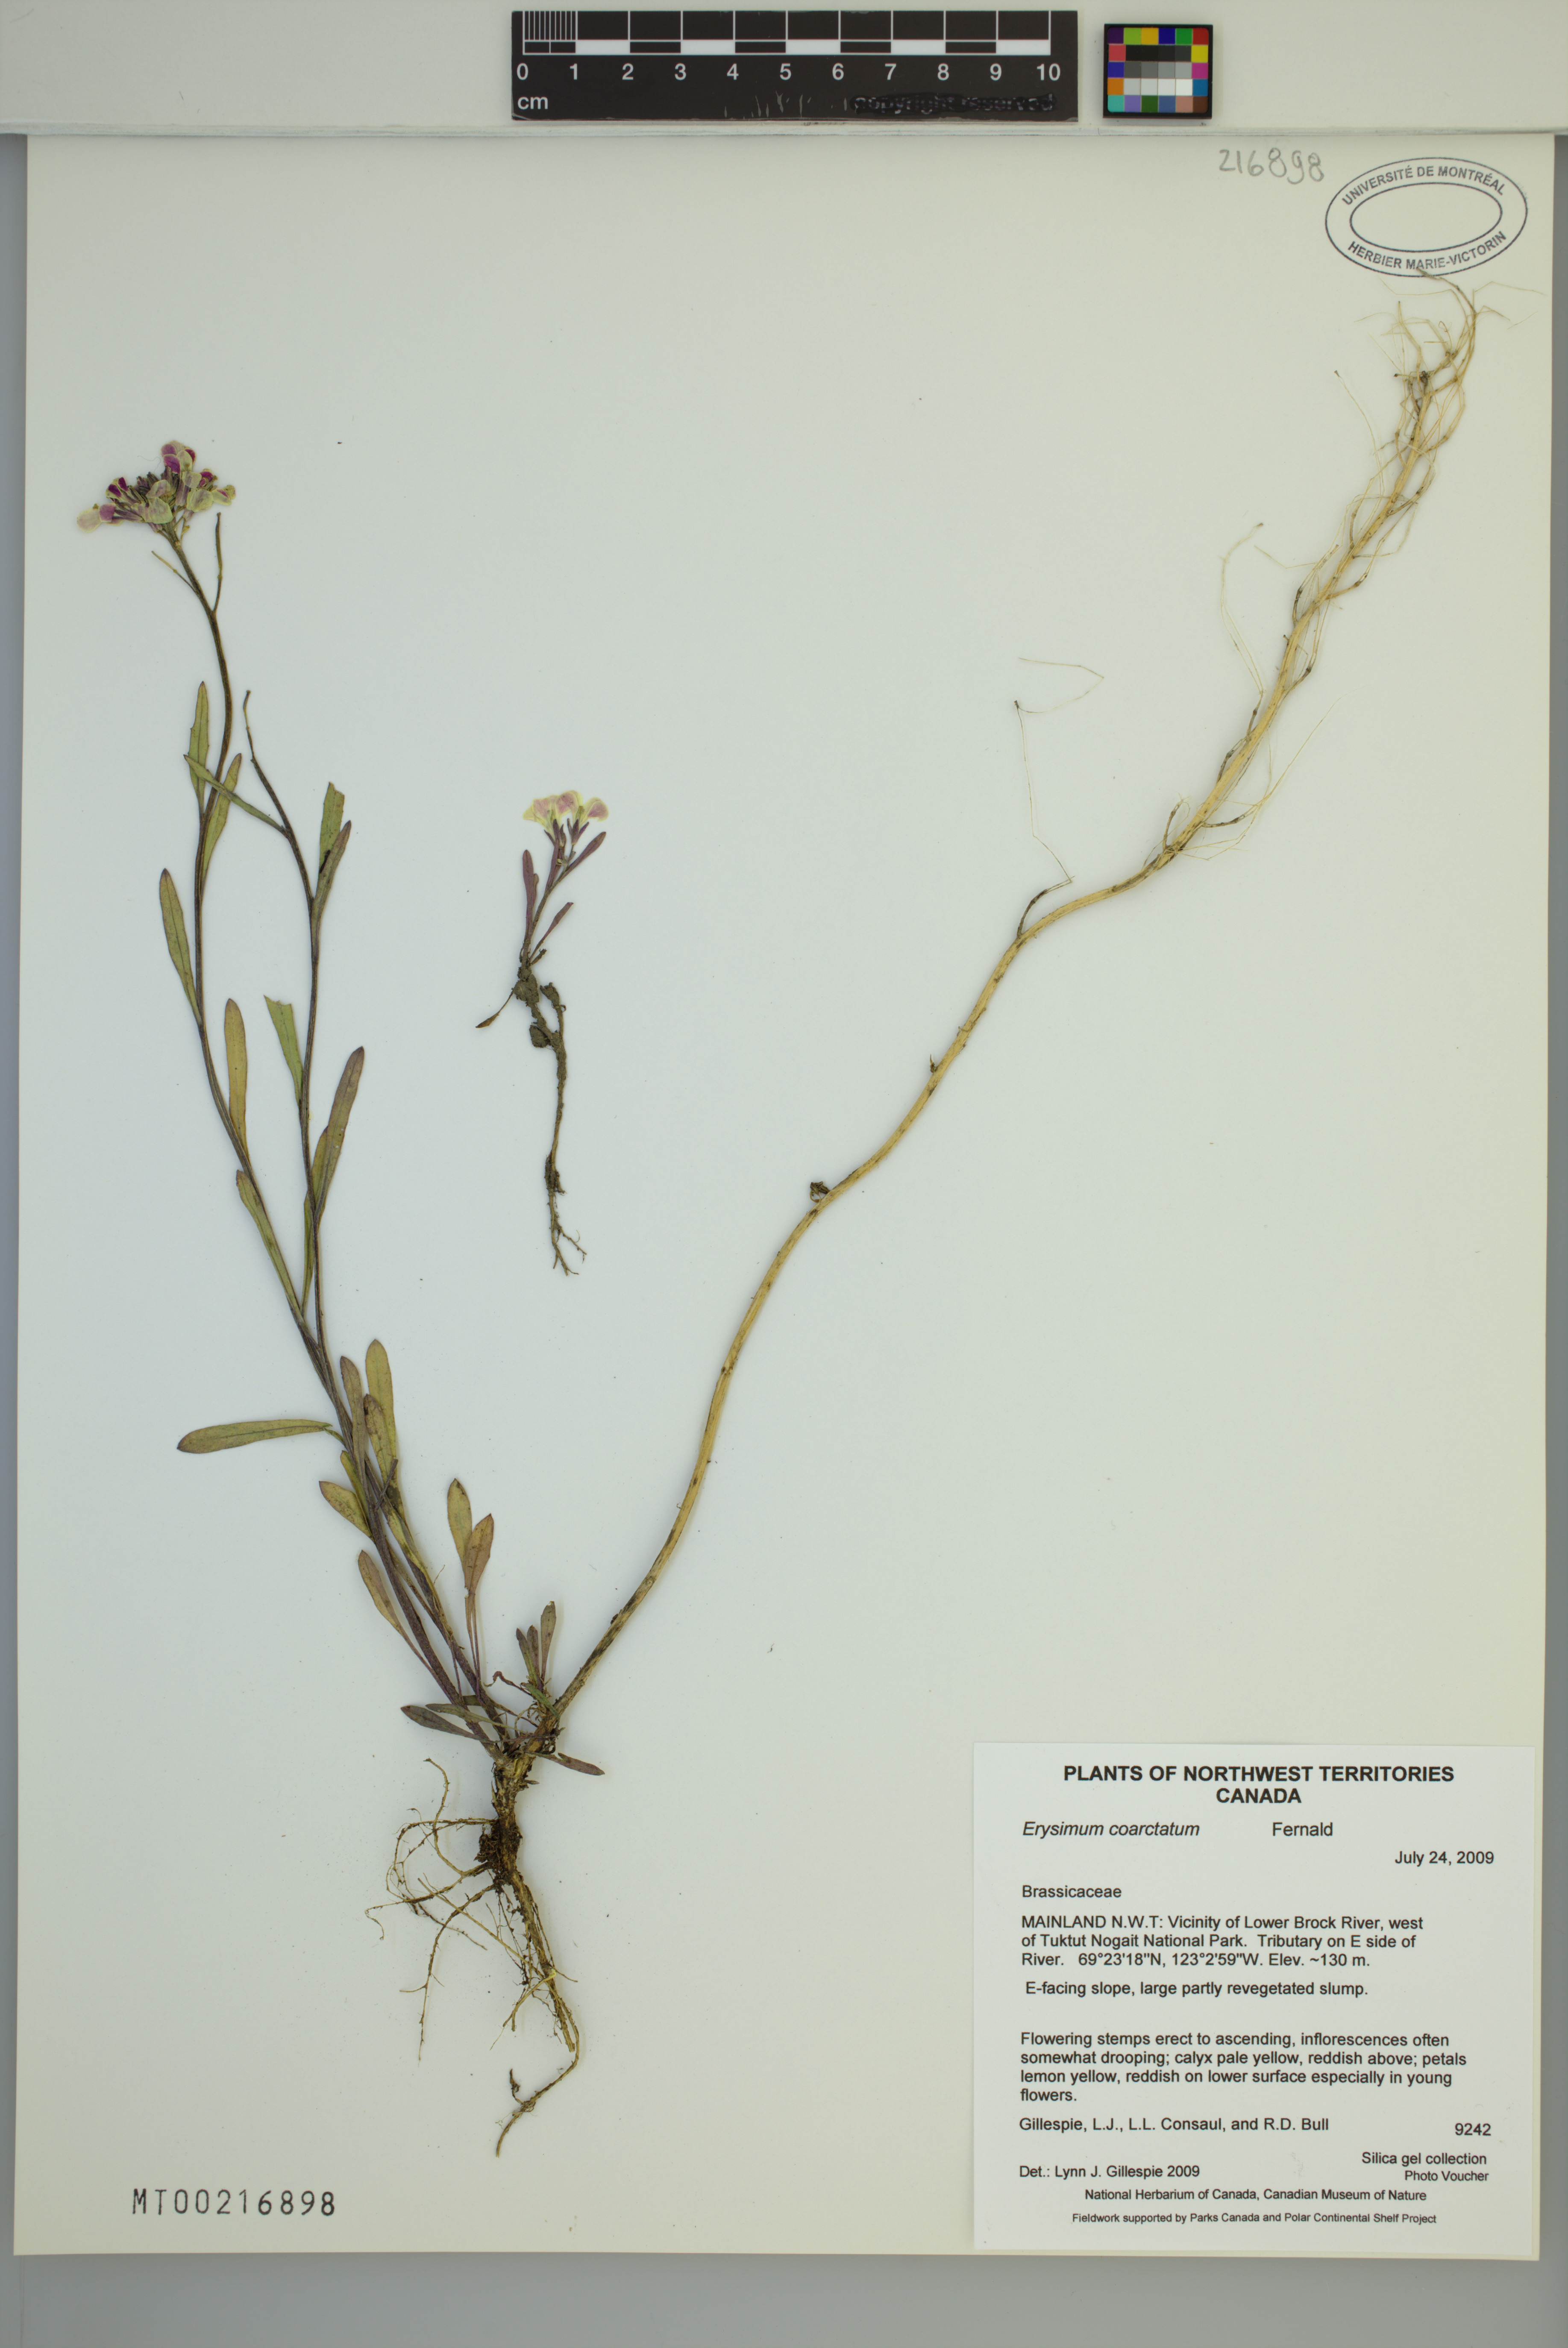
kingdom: Plantae
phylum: Tracheophyta
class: Magnoliopsida
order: Brassicales
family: Brassicaceae
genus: Erysimum
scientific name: Erysimum coarctatum
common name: Gulf of st. lawrence wormseed mustard
